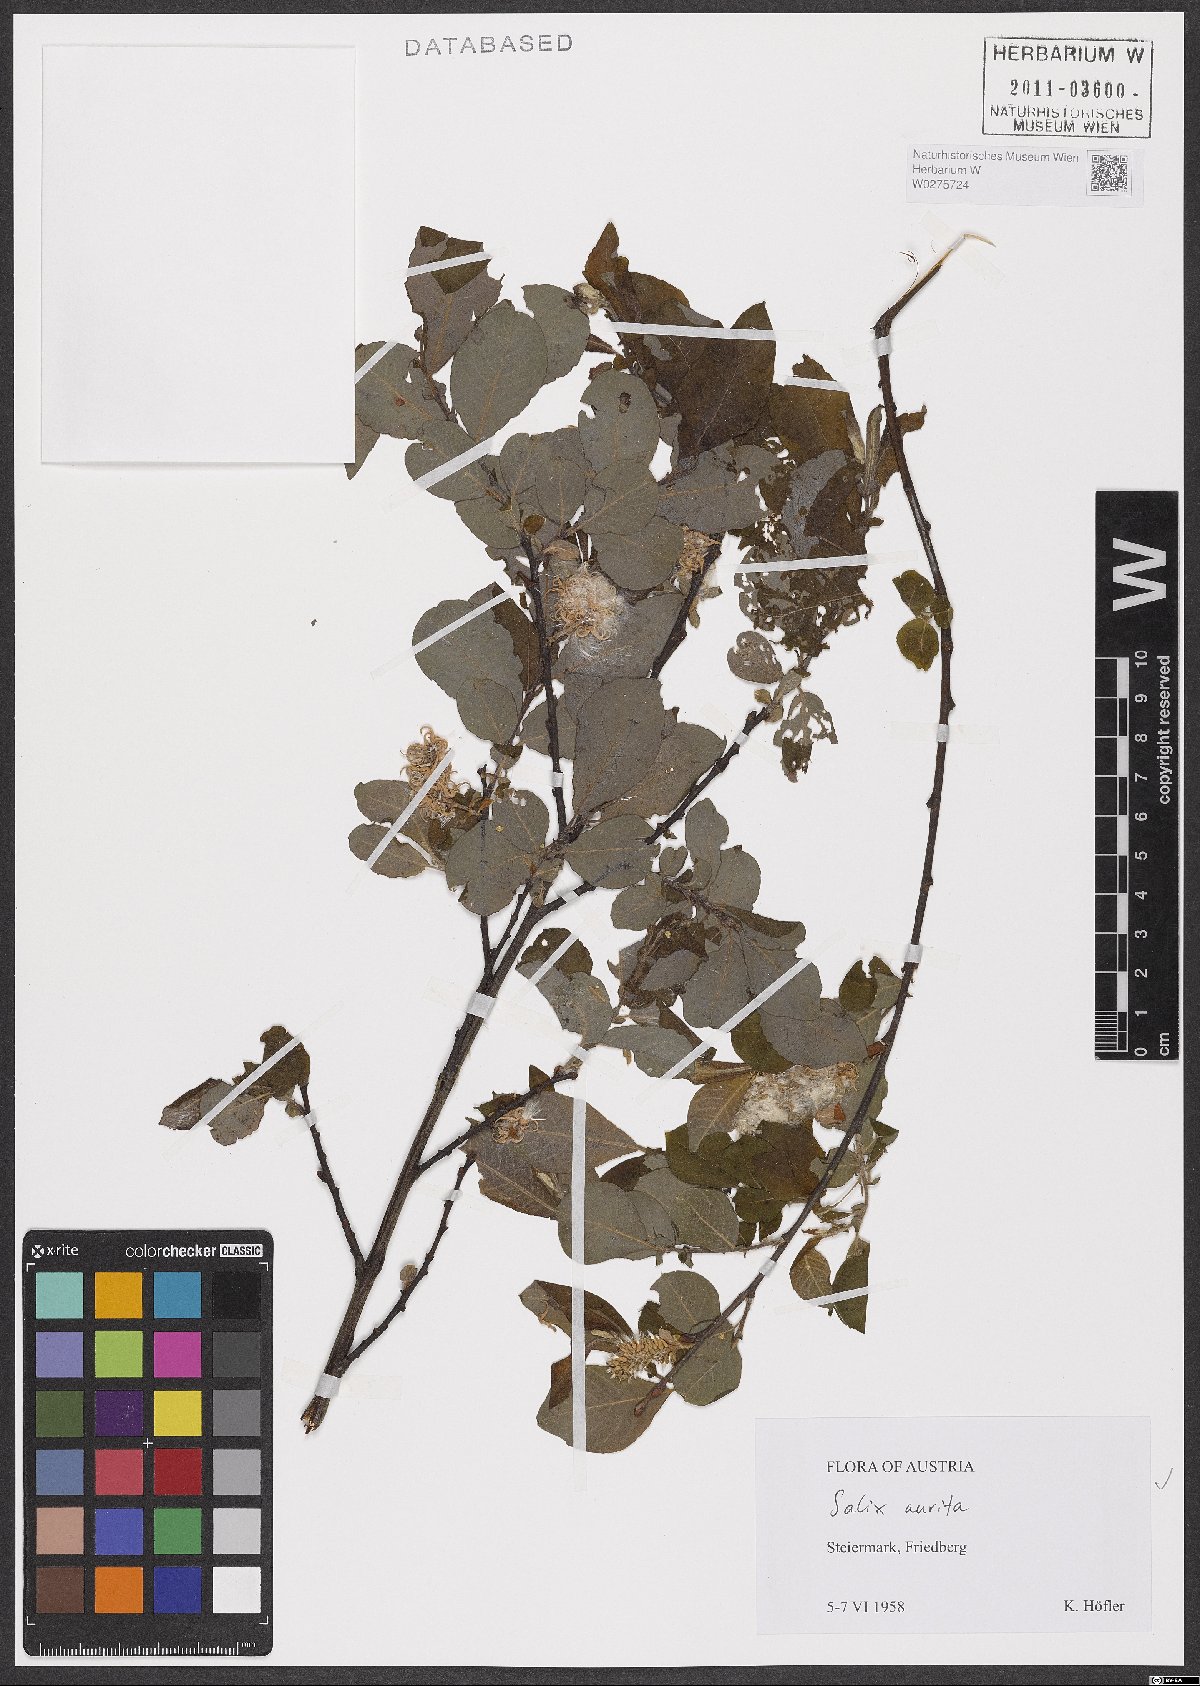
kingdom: Plantae
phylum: Tracheophyta
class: Magnoliopsida
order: Malpighiales
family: Salicaceae
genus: Salix
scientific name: Salix aurita
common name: Eared willow
